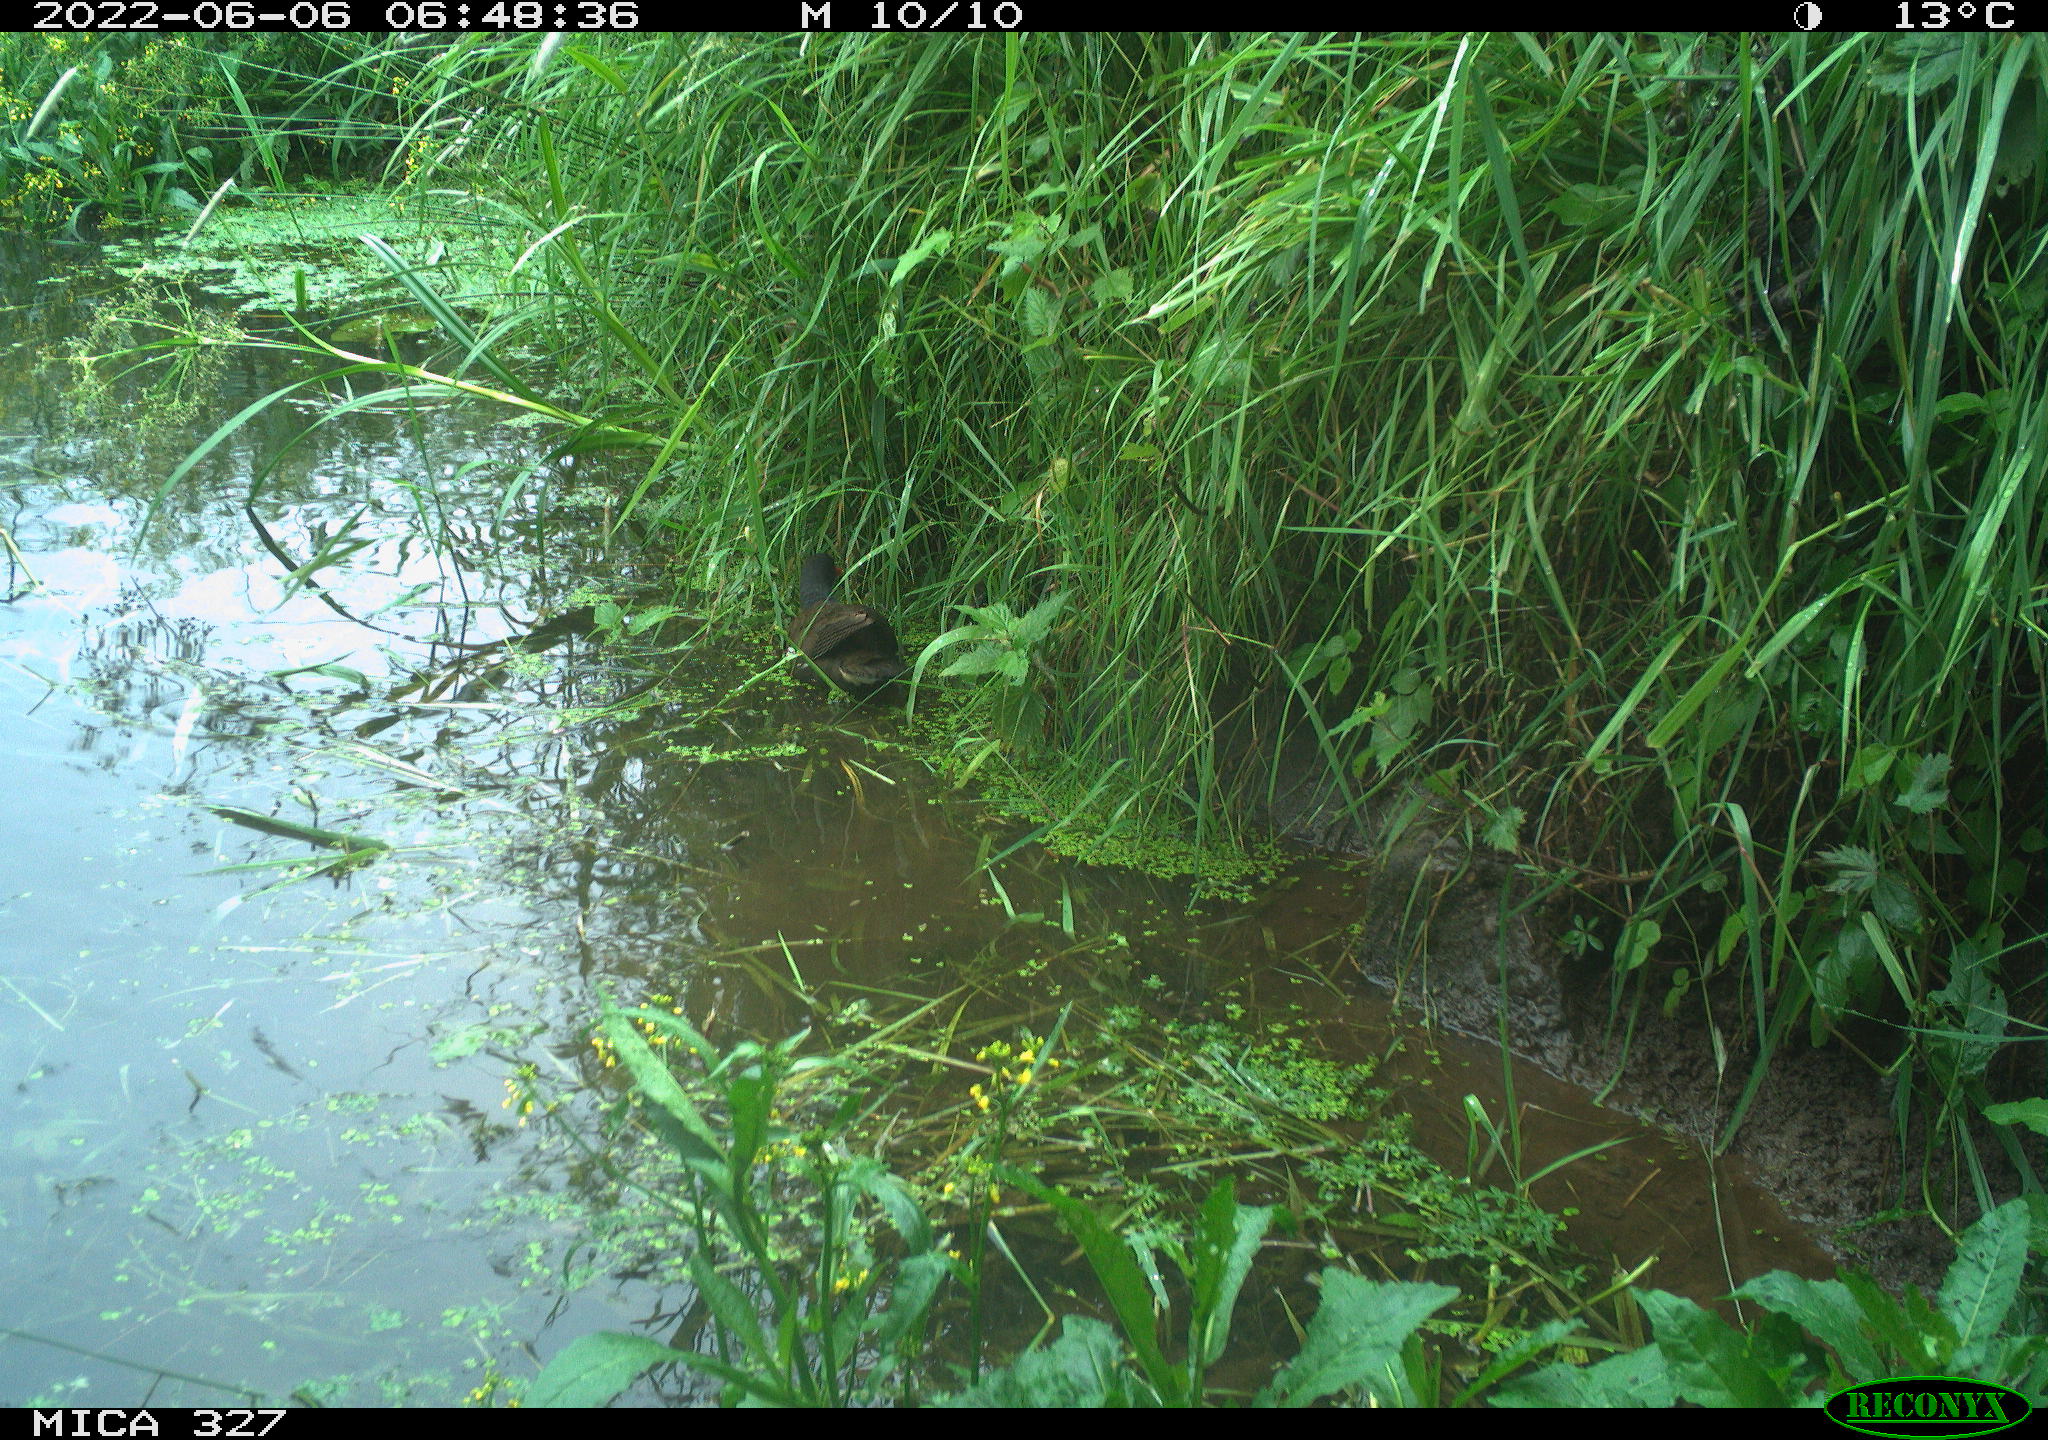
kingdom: Animalia
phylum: Chordata
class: Aves
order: Gruiformes
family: Rallidae
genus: Gallinula
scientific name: Gallinula chloropus
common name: Common moorhen
